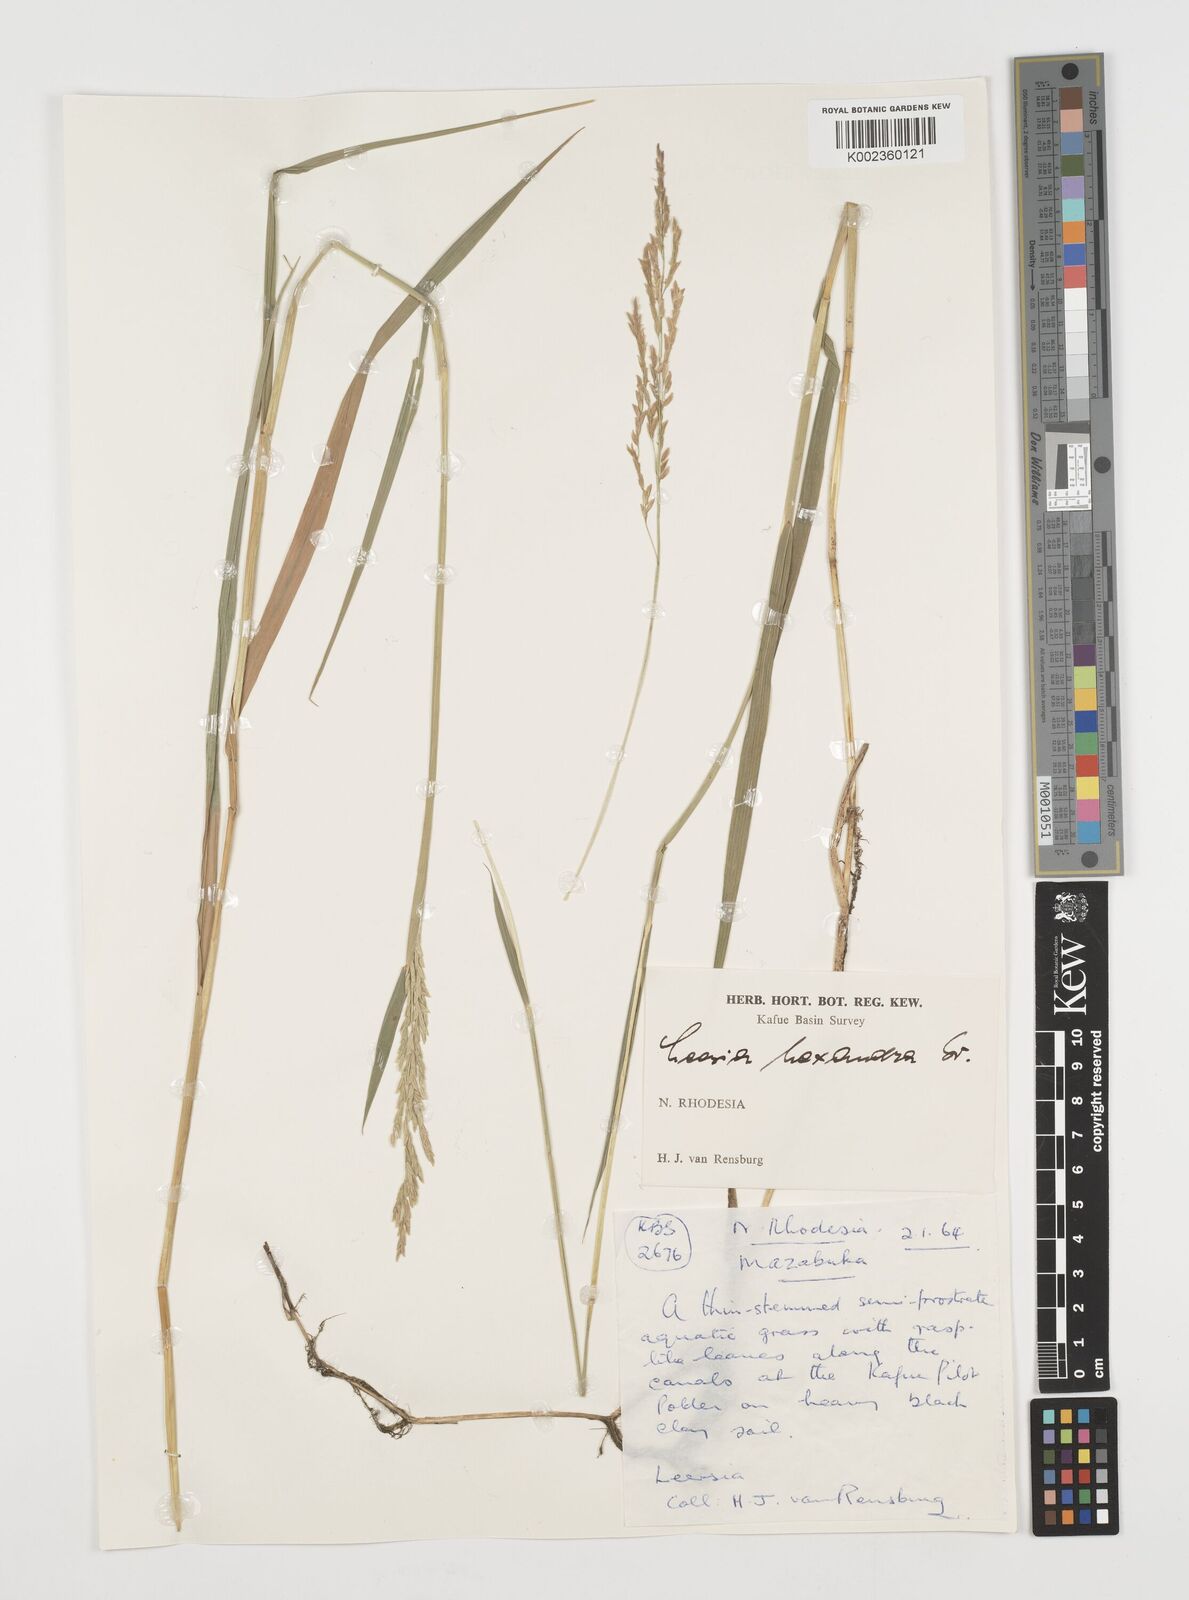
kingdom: Plantae
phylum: Tracheophyta
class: Liliopsida
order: Poales
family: Poaceae
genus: Leersia
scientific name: Leersia hexandra
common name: Southern cut grass
